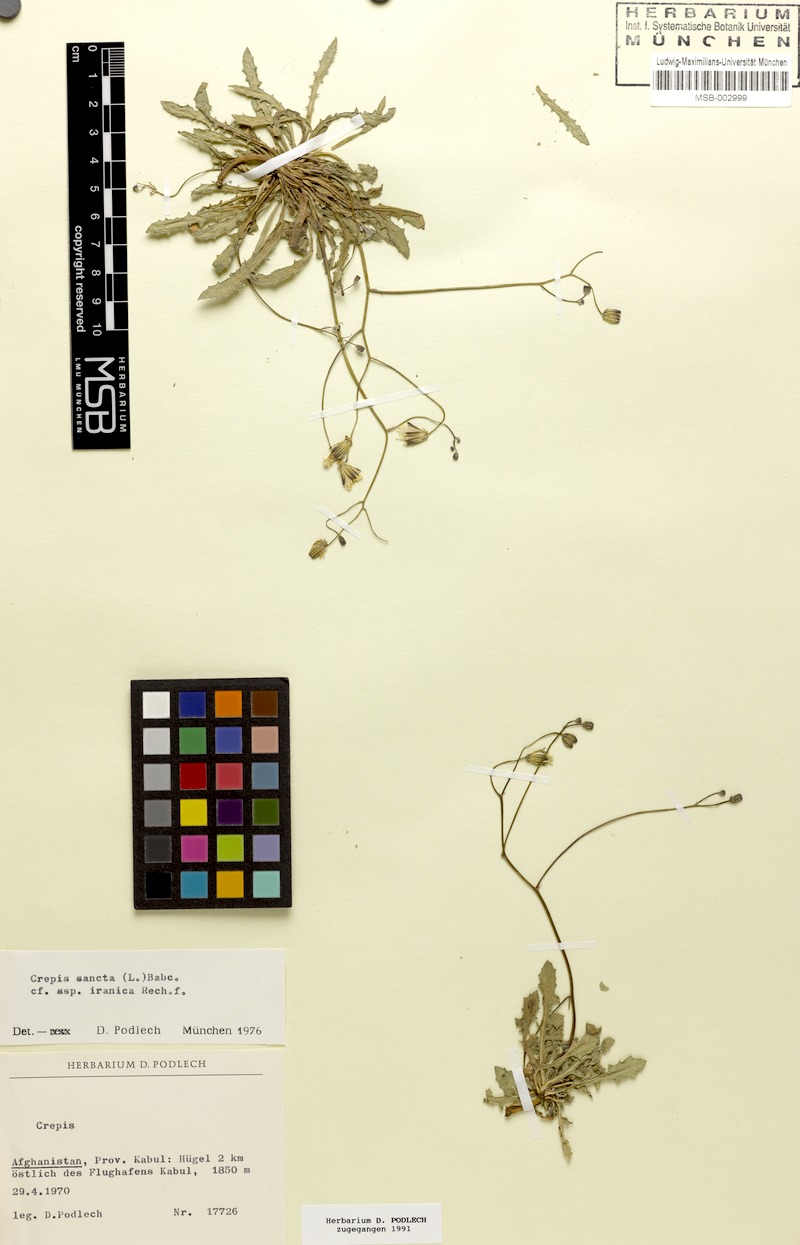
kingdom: Plantae
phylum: Tracheophyta
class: Magnoliopsida
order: Asterales
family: Asteraceae
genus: Crepis
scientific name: Crepis sancta
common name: Hawk's-beard
